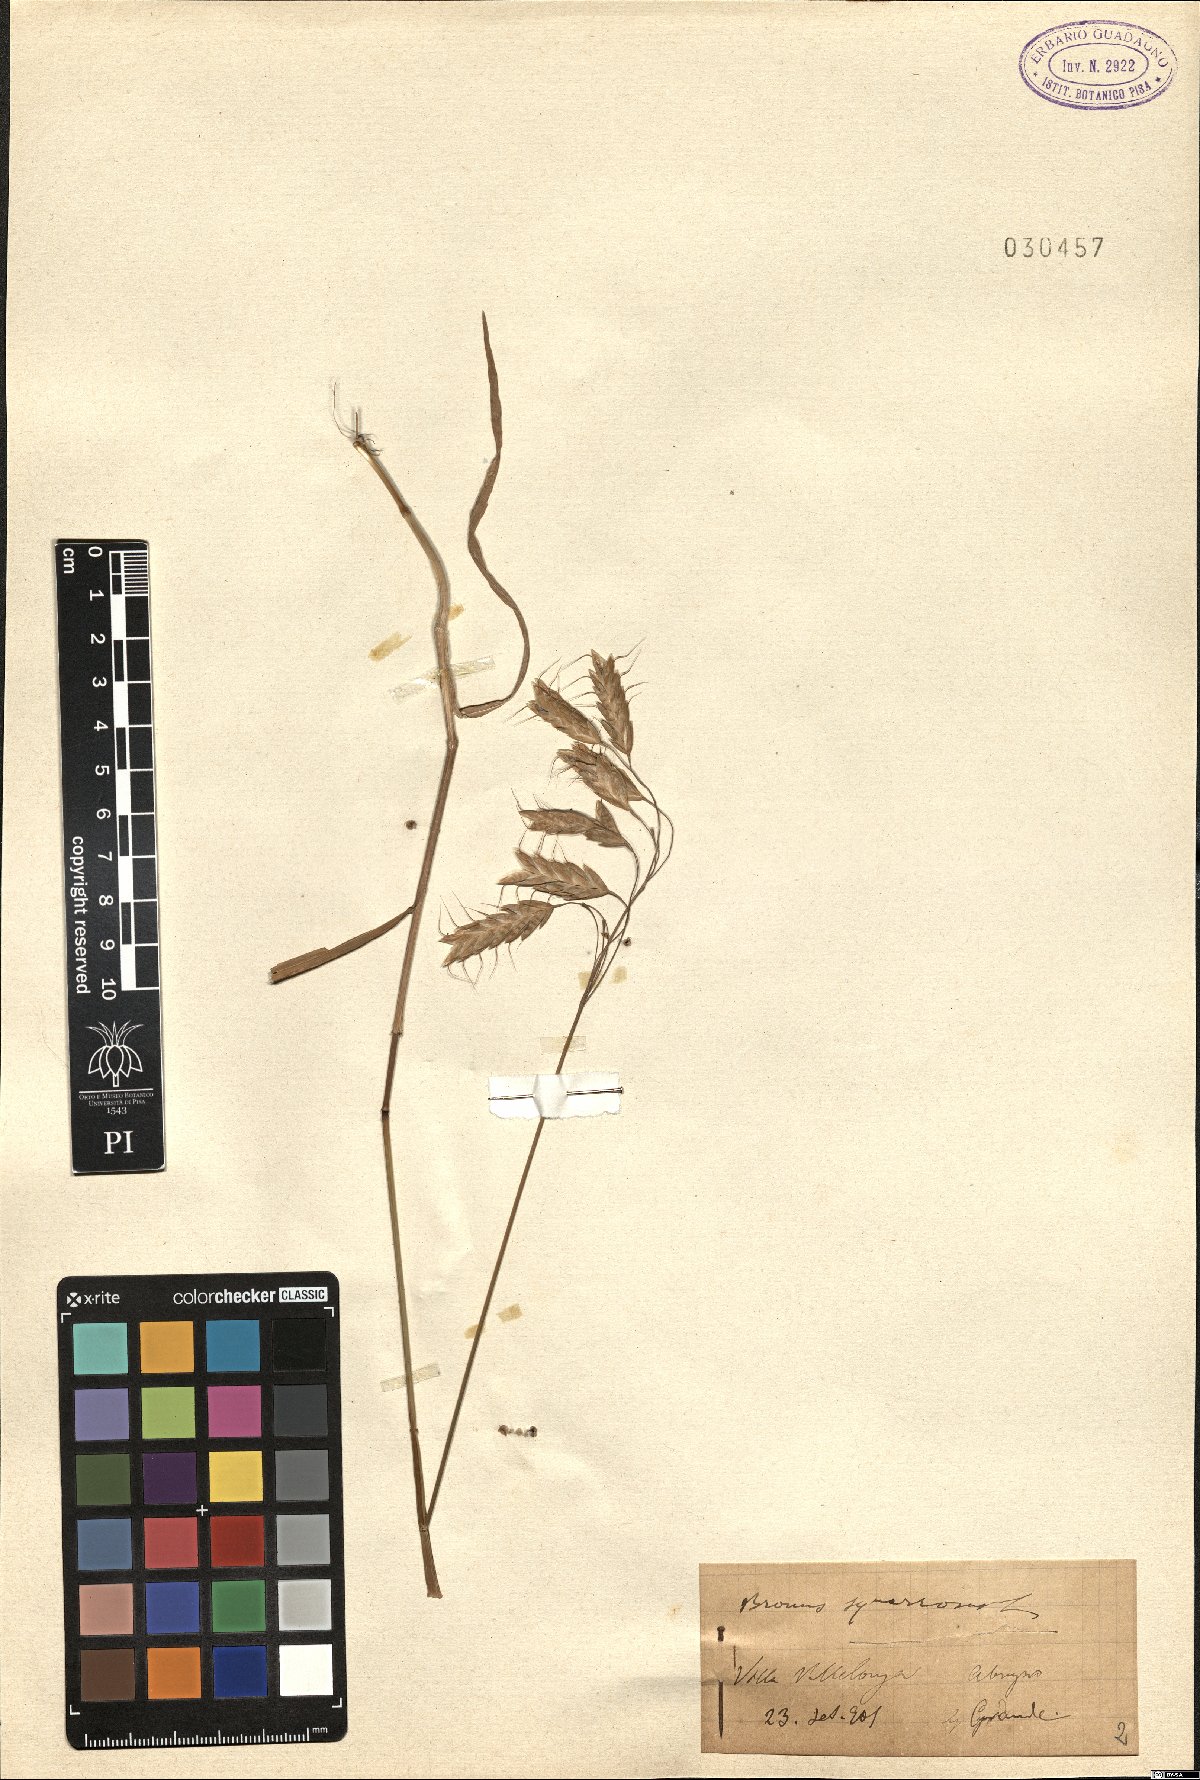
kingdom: Plantae
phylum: Tracheophyta
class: Liliopsida
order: Poales
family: Poaceae
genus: Bromus
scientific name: Bromus squarrosus
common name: Corn brome
